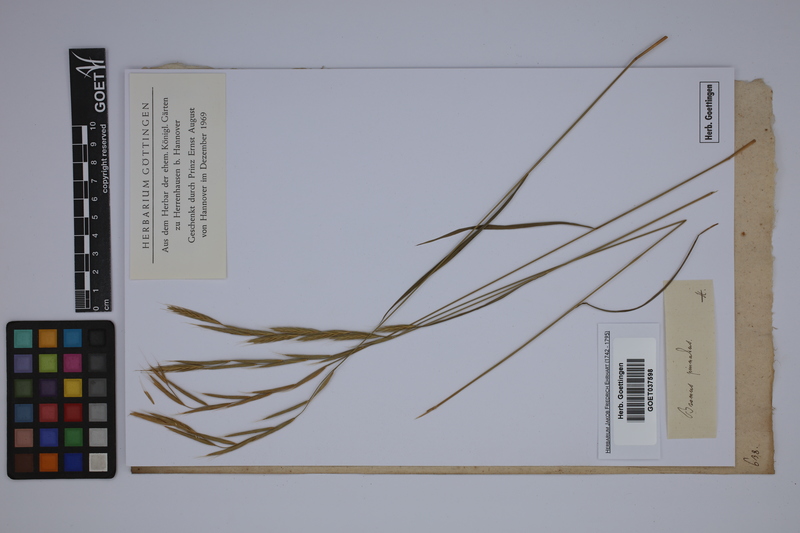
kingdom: Plantae
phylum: Tracheophyta
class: Liliopsida
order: Poales
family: Poaceae
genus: Brachypodium
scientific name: Brachypodium pinnatum
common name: Tor grass
